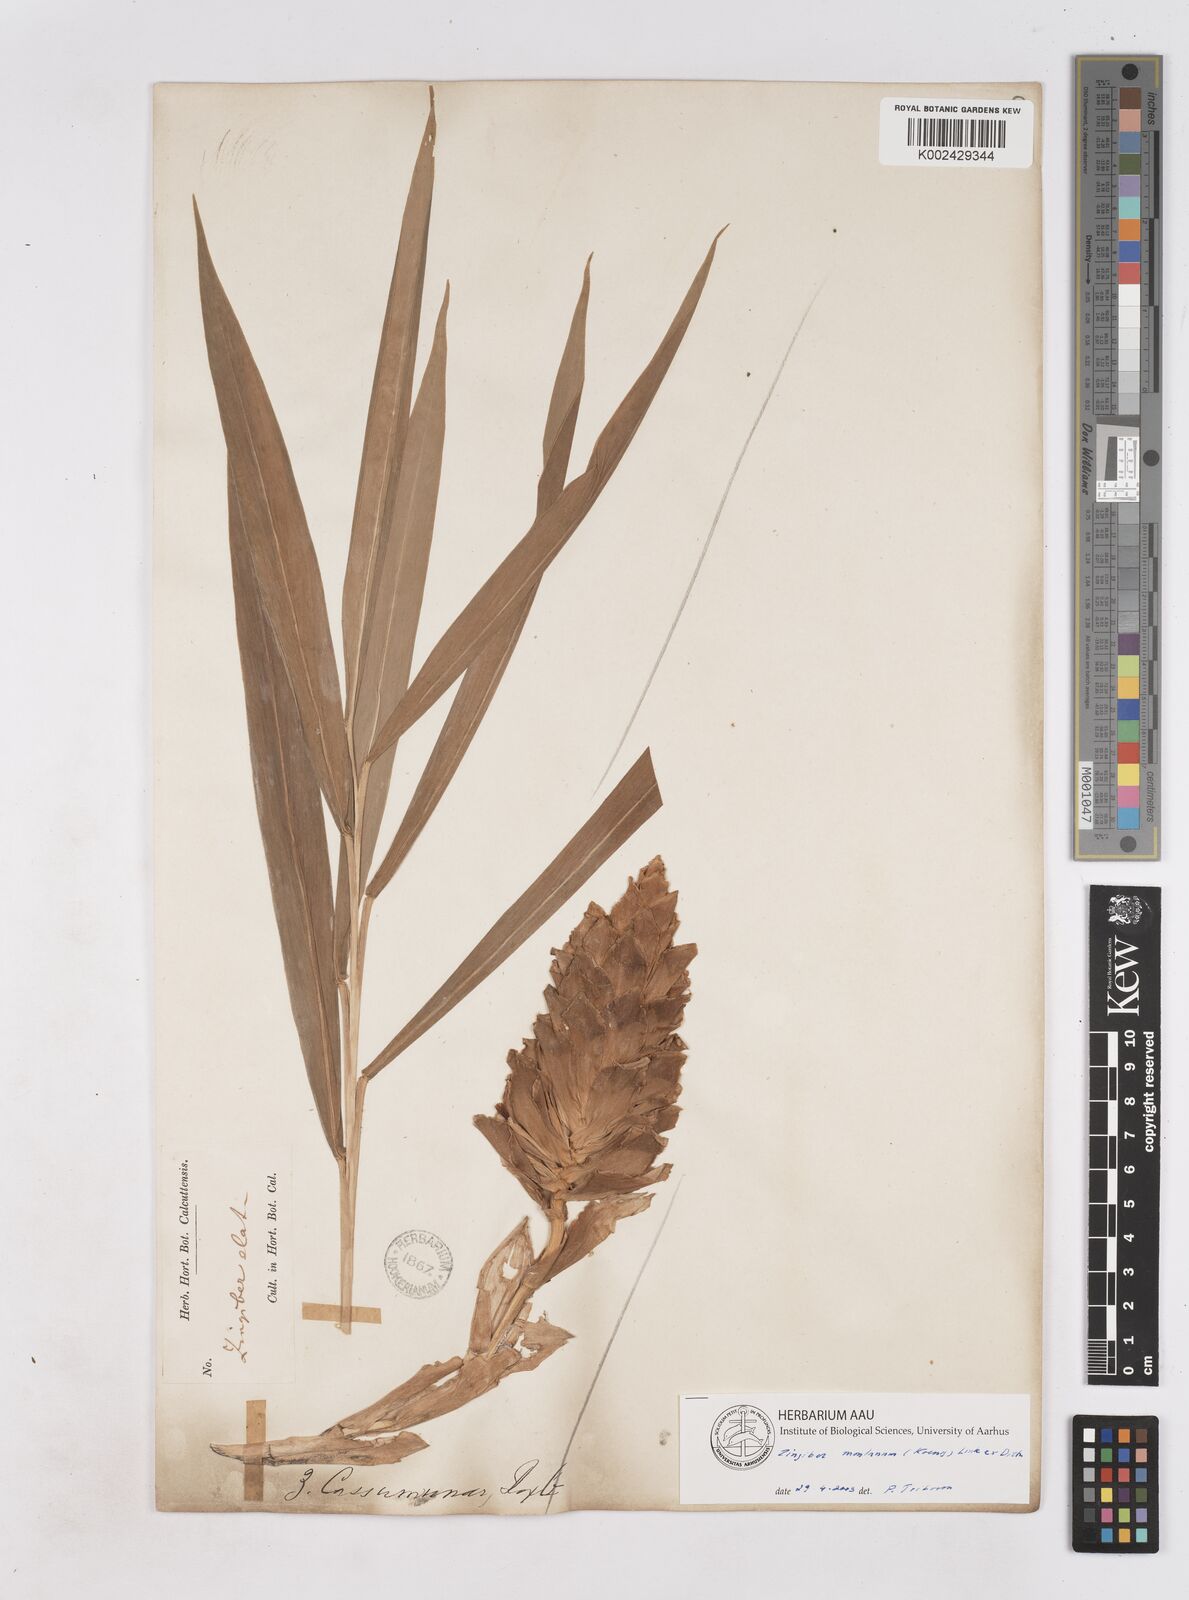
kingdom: Plantae
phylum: Tracheophyta
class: Liliopsida
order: Zingiberales
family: Zingiberaceae
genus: Zingiber
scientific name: Zingiber montanum
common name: Bengal ginger
